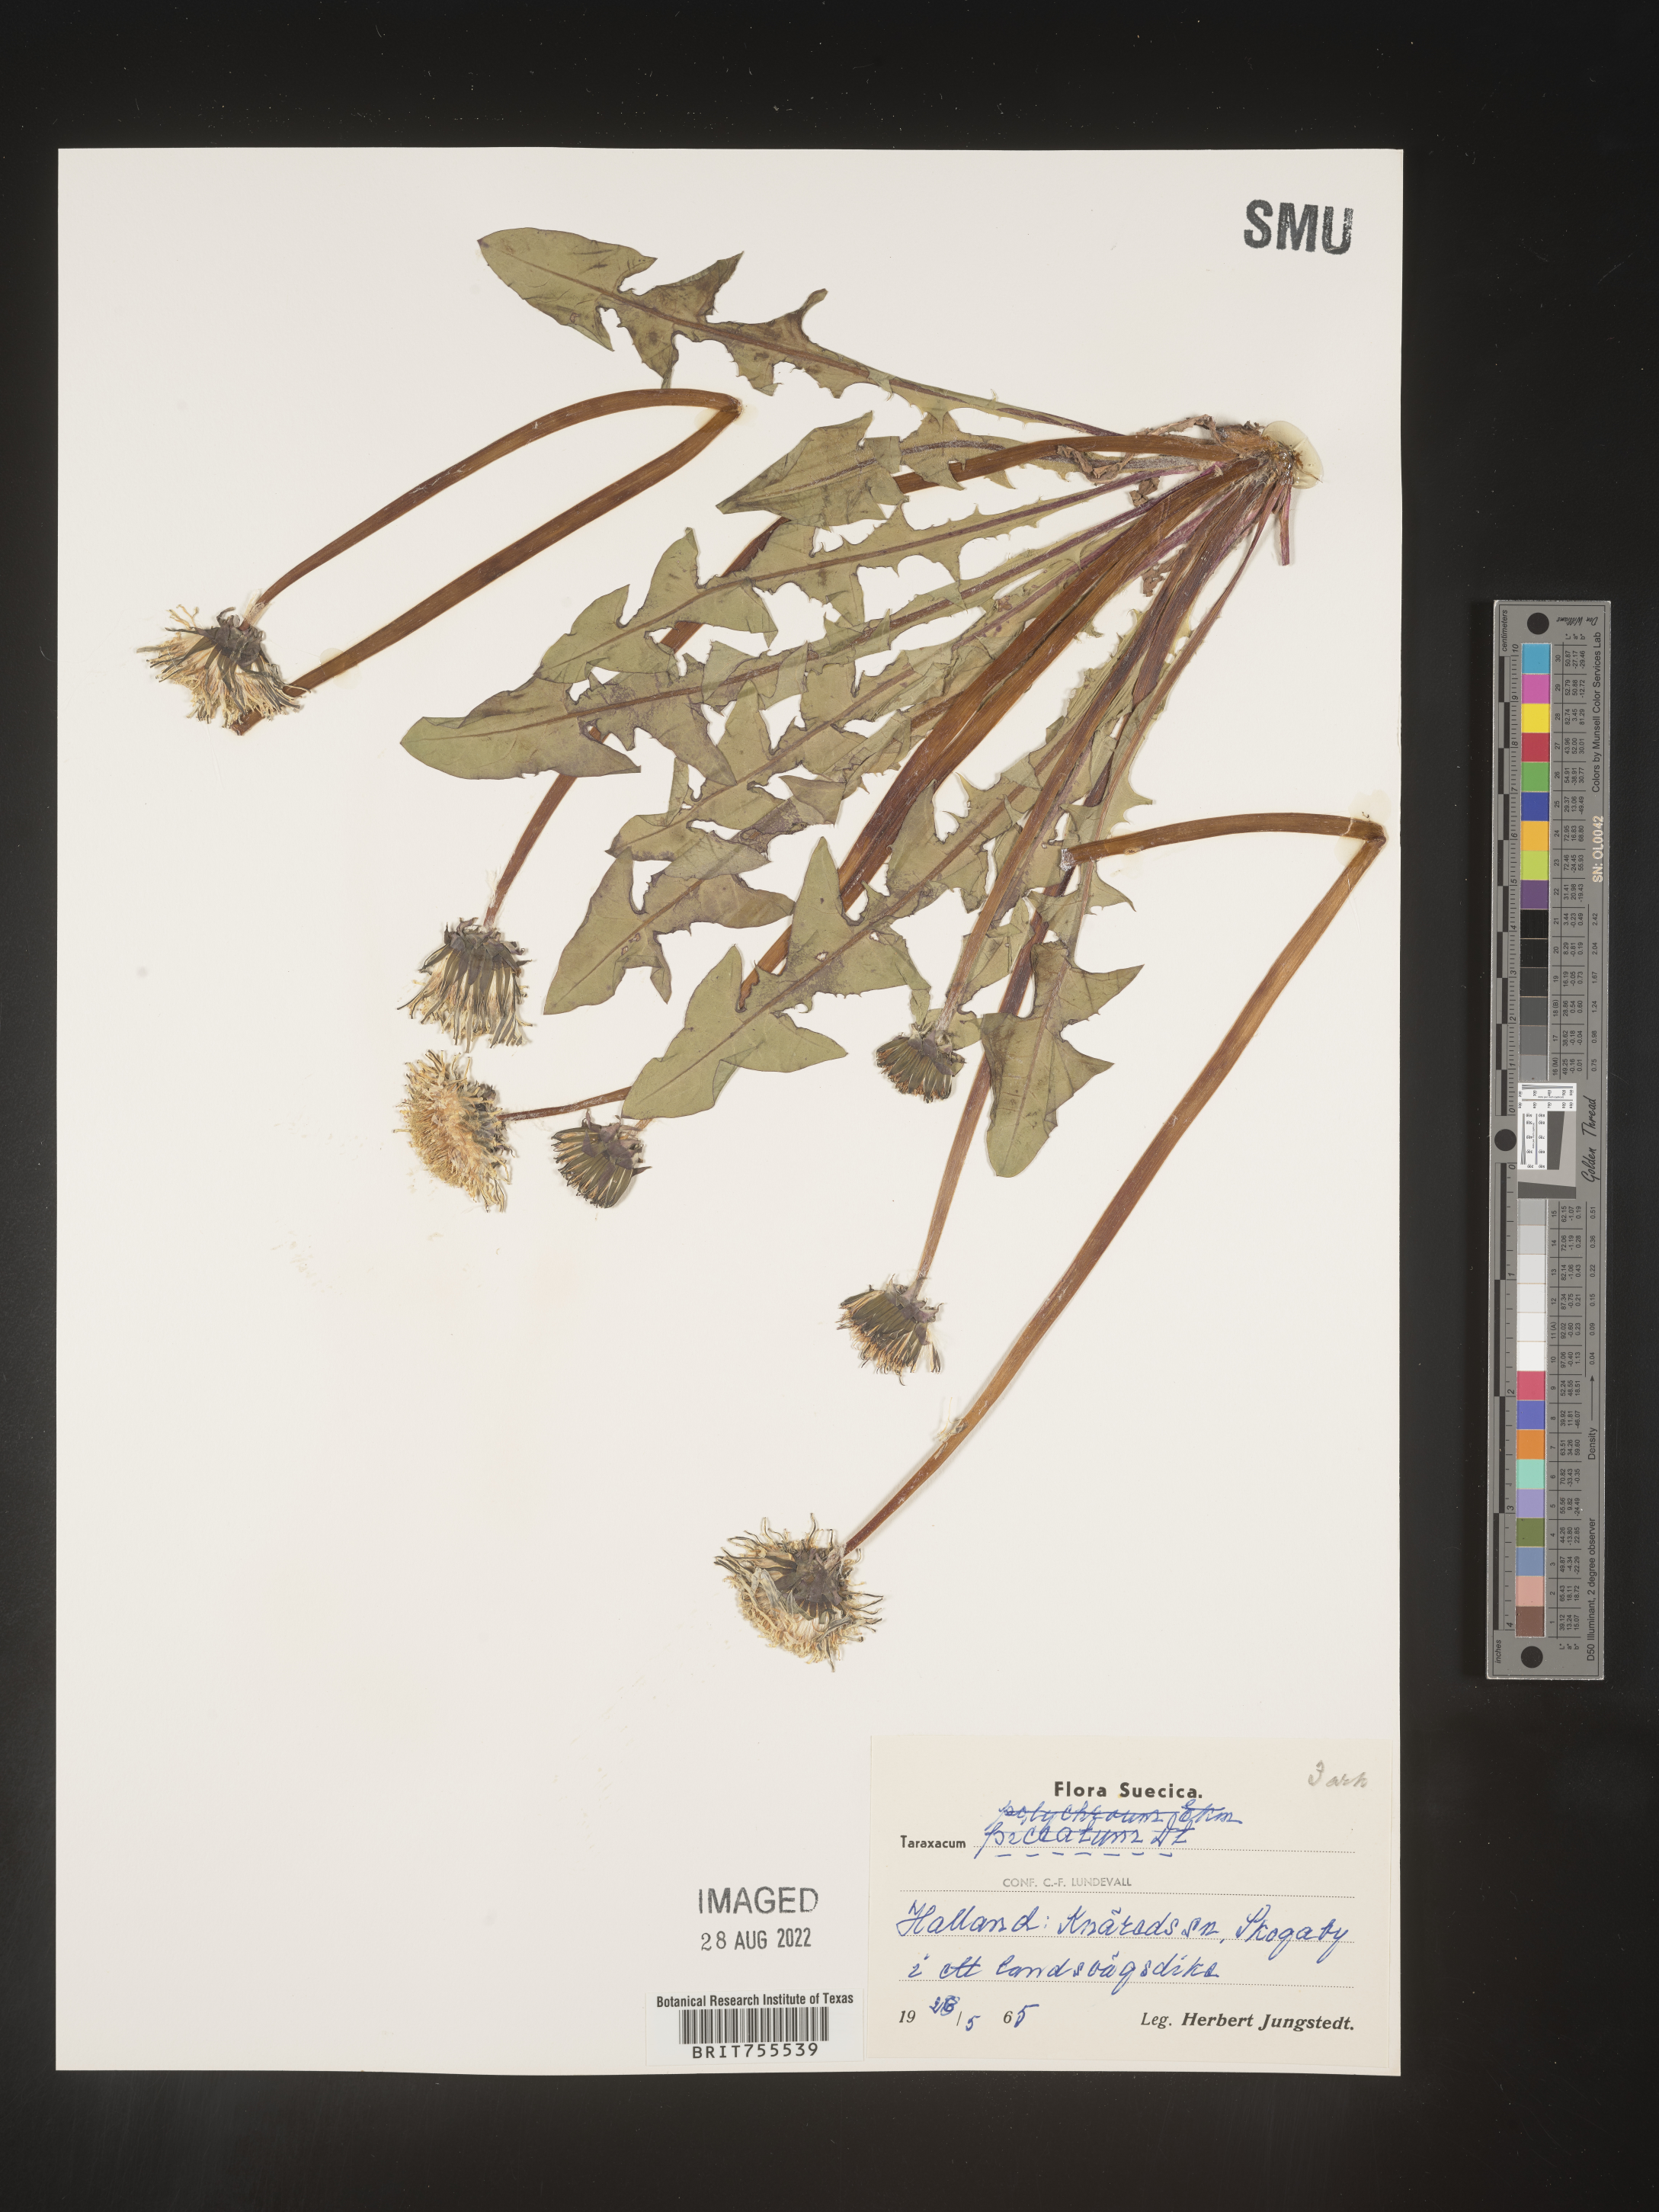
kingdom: Plantae
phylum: Tracheophyta
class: Magnoliopsida
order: Asterales
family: Asteraceae
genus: Taraxacum
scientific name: Taraxacum
